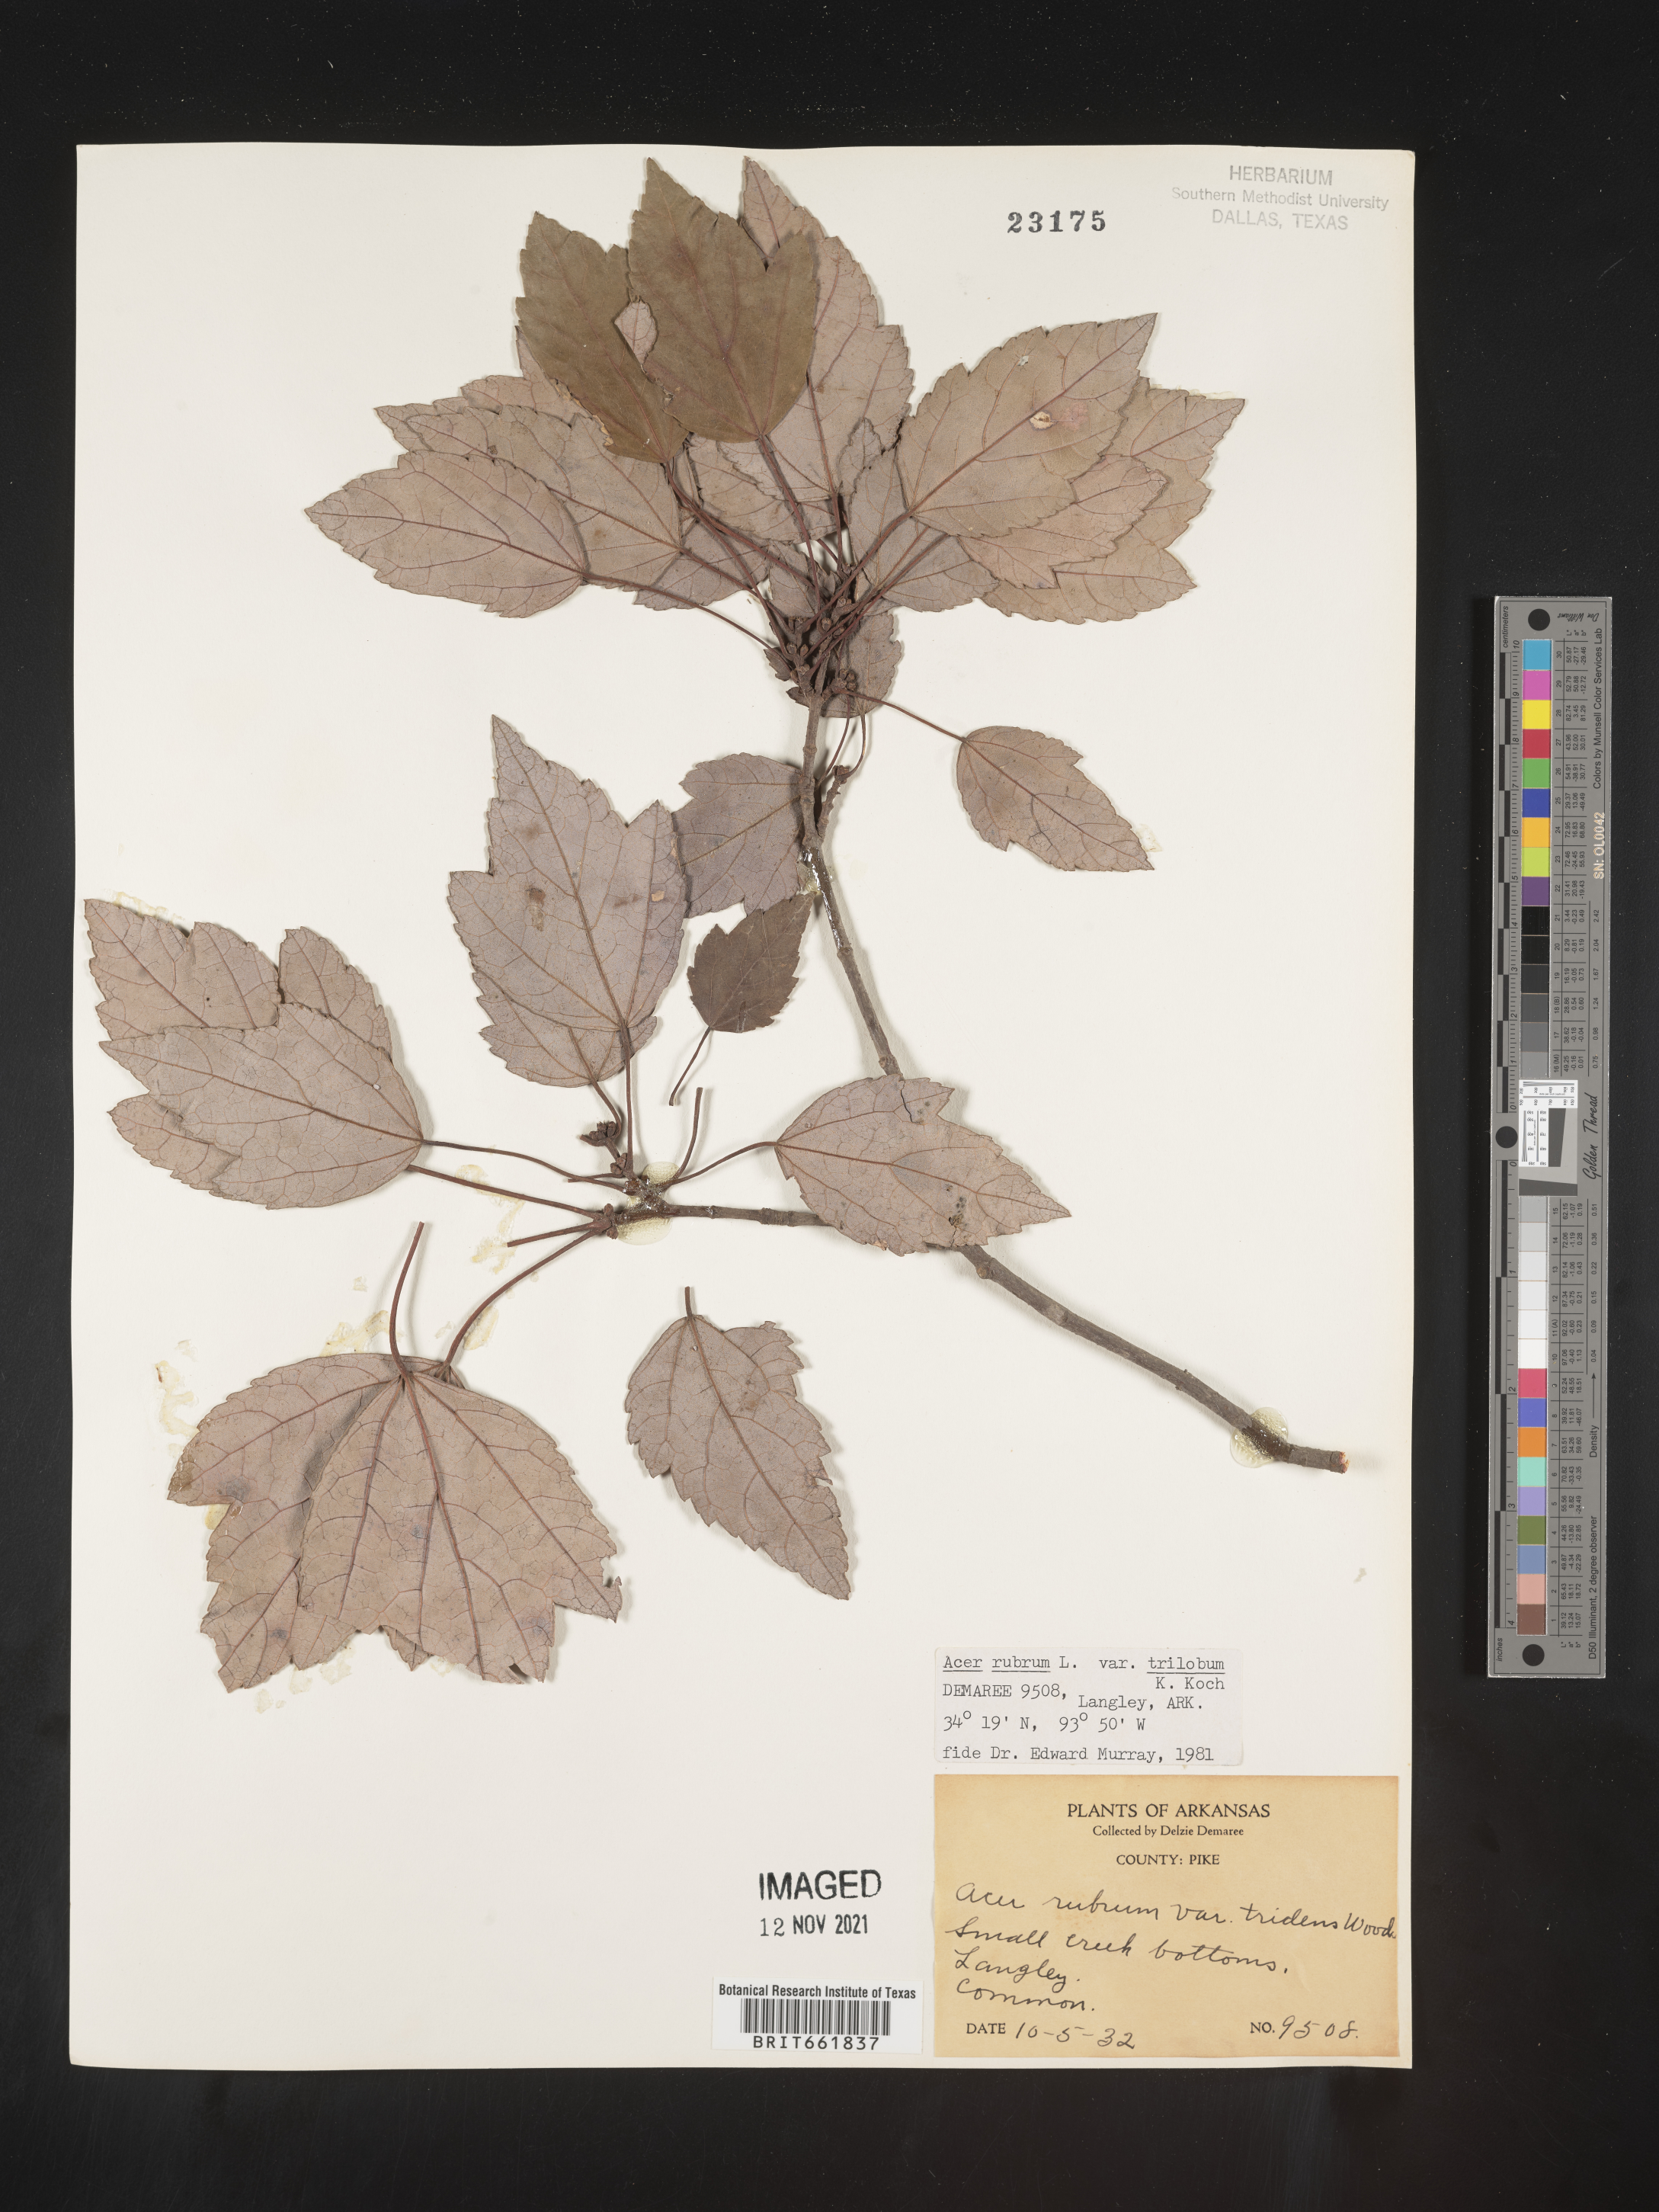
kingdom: Plantae
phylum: Tracheophyta
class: Magnoliopsida
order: Sapindales
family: Sapindaceae
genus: Acer
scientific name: Acer rubrum
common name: Red maple
